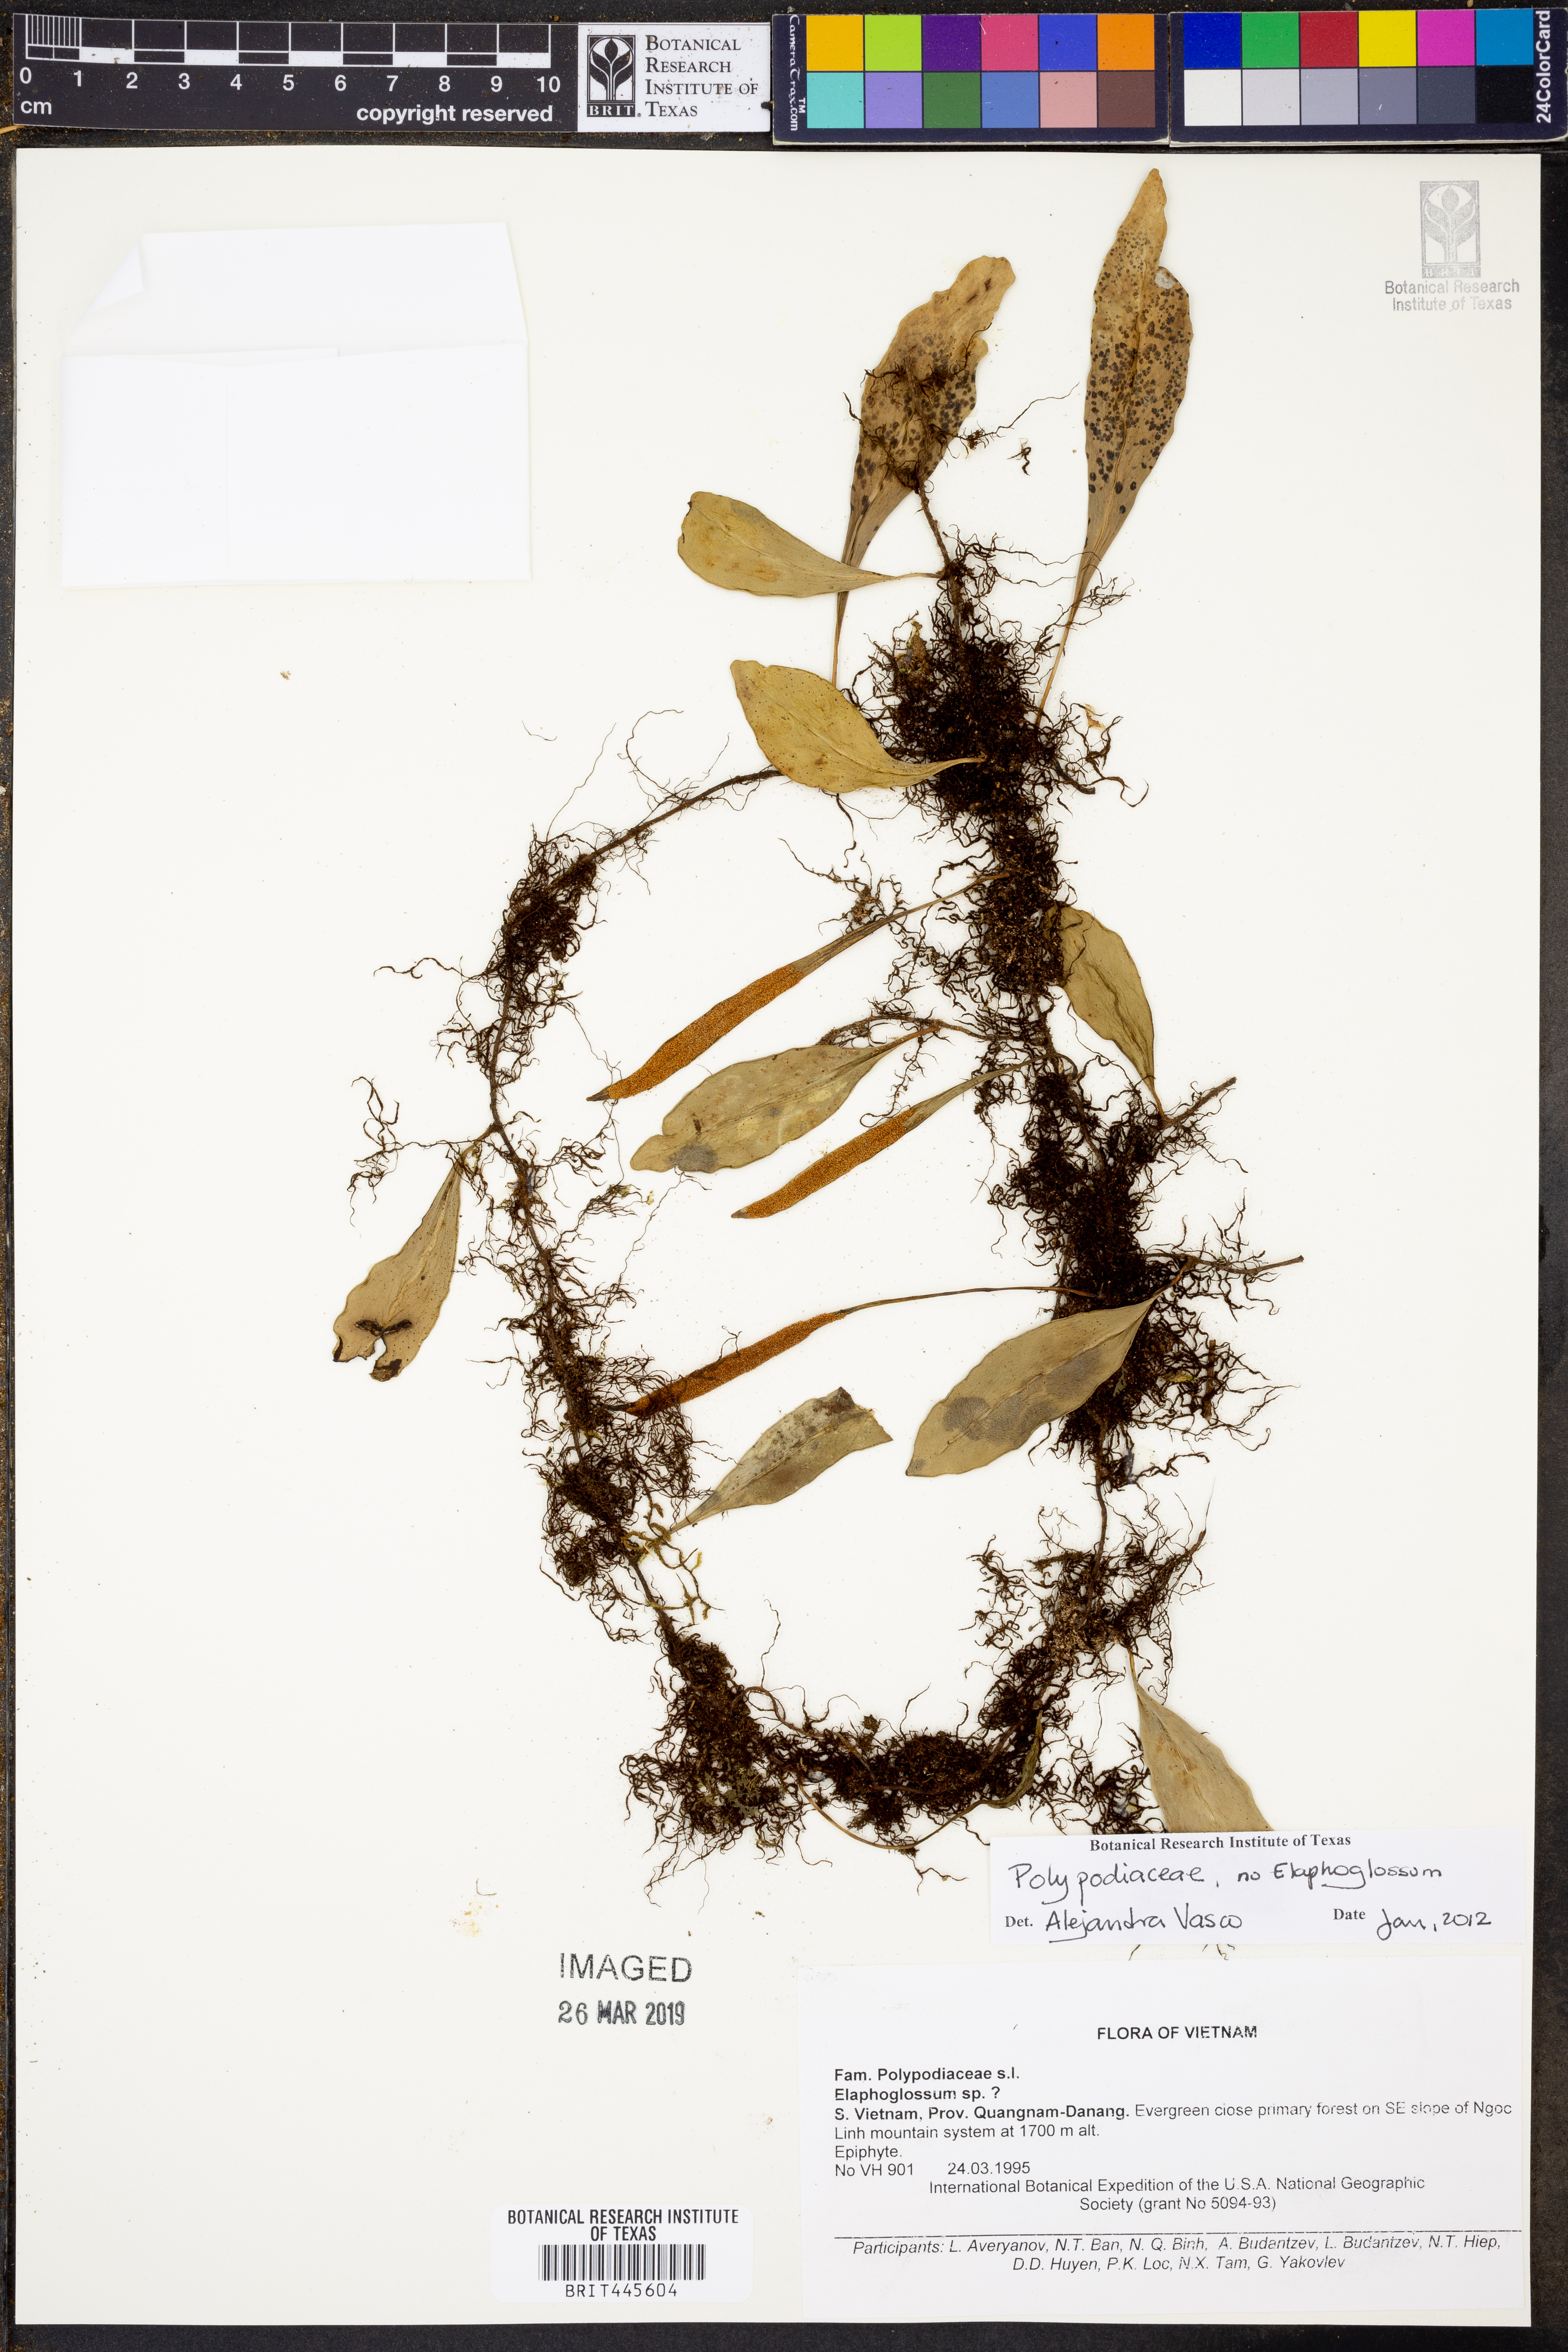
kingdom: Plantae
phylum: Tracheophyta
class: Polypodiopsida
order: Polypodiales
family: Polypodiaceae
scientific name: Polypodiaceae
